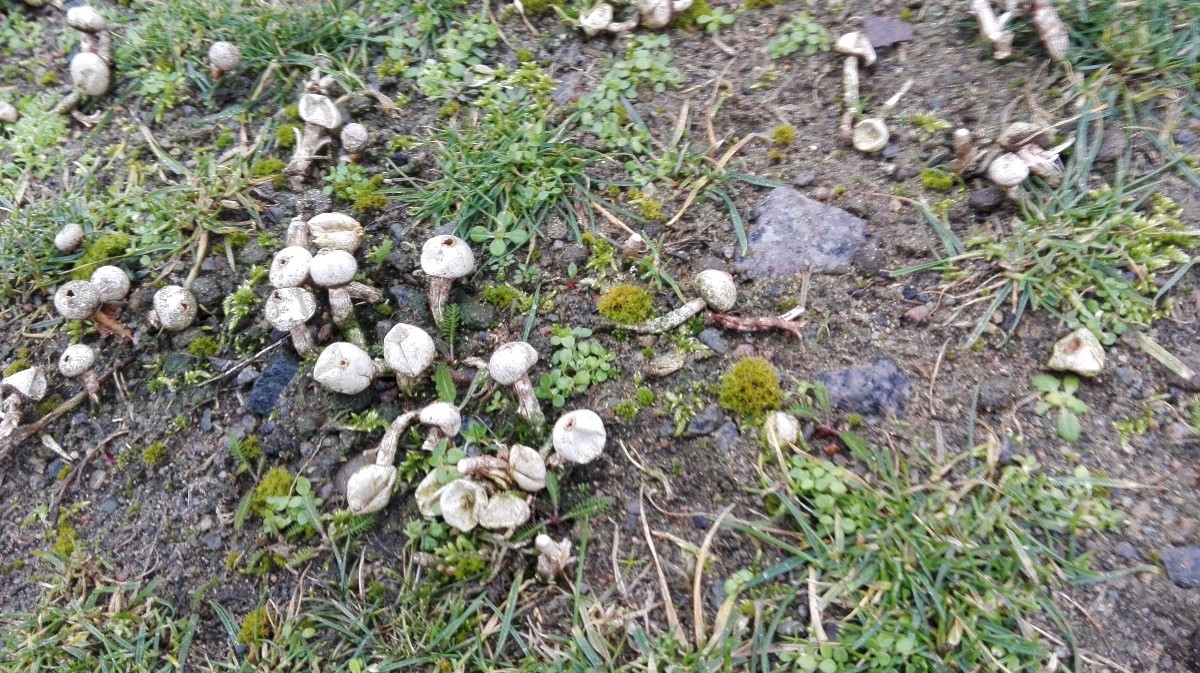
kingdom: Fungi
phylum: Basidiomycota
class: Agaricomycetes
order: Agaricales
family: Agaricaceae
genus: Tulostoma
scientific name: Tulostoma fimbriatum
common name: frynset stilkbovist
